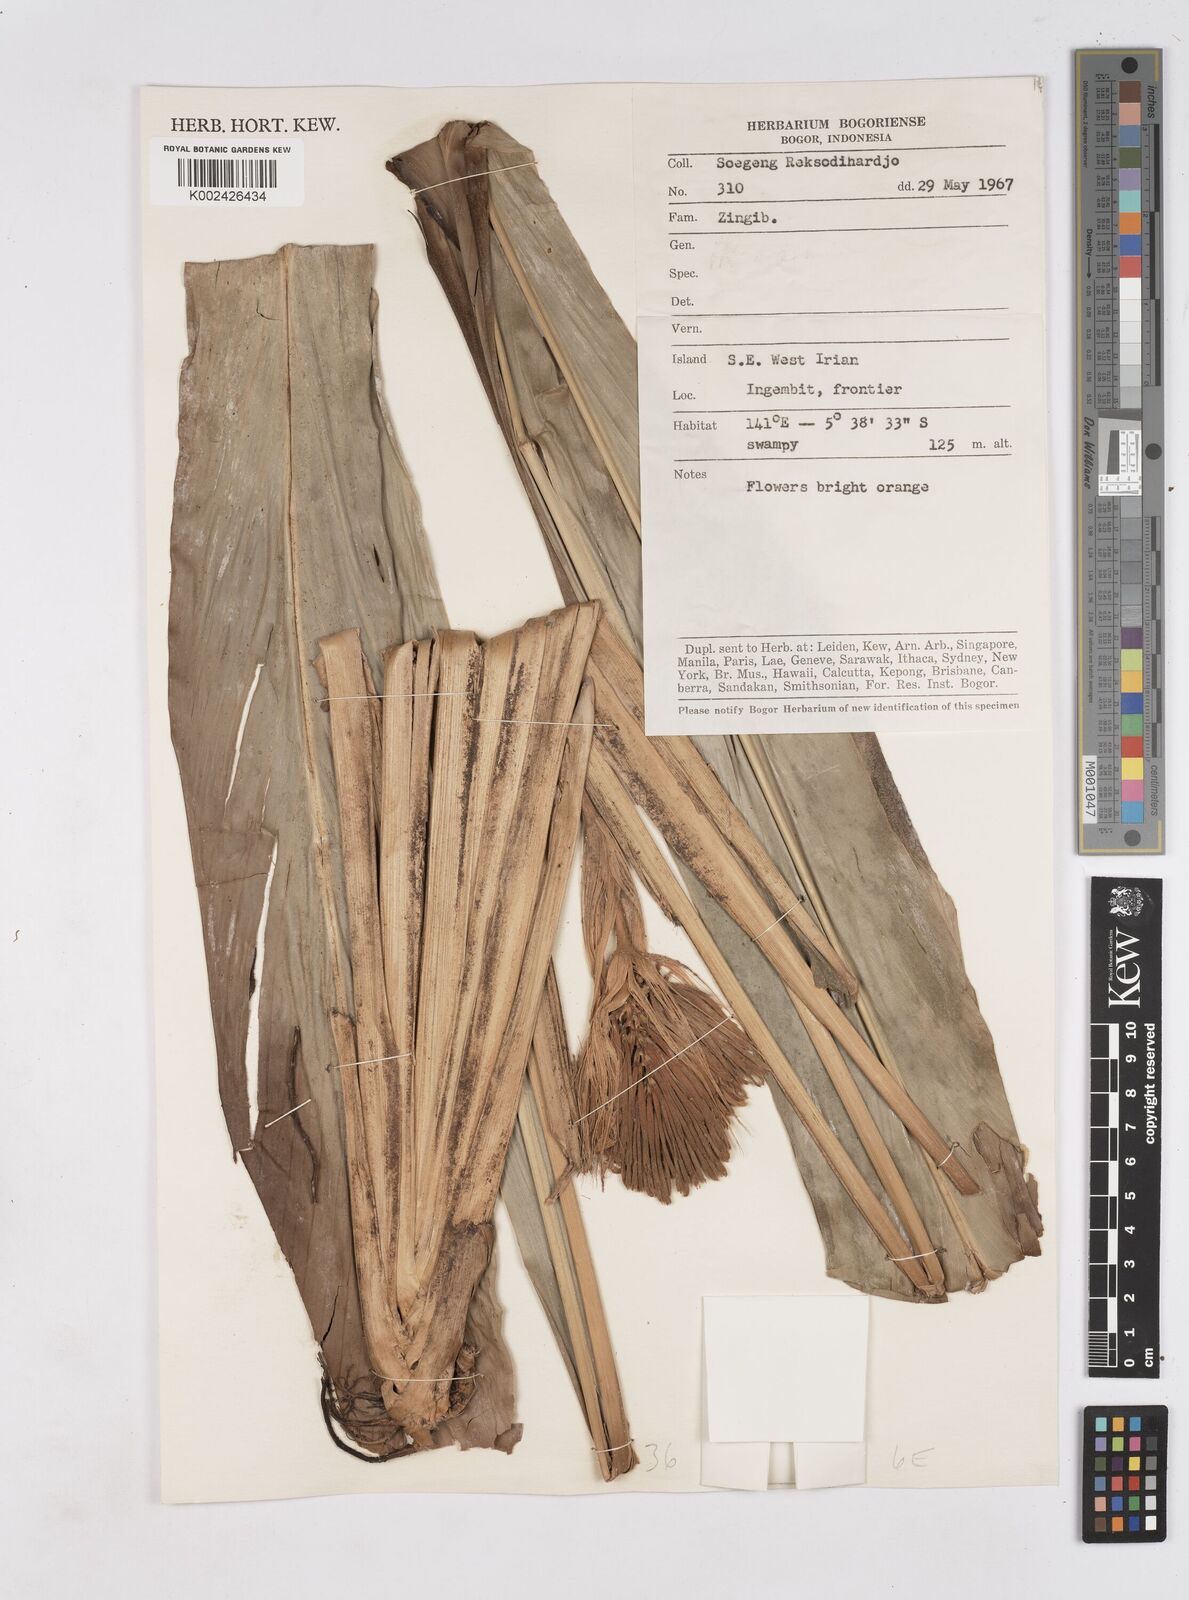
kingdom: Plantae
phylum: Tracheophyta
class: Liliopsida
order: Zingiberales
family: Zingiberaceae
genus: Riedelia
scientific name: Riedelia corallina
